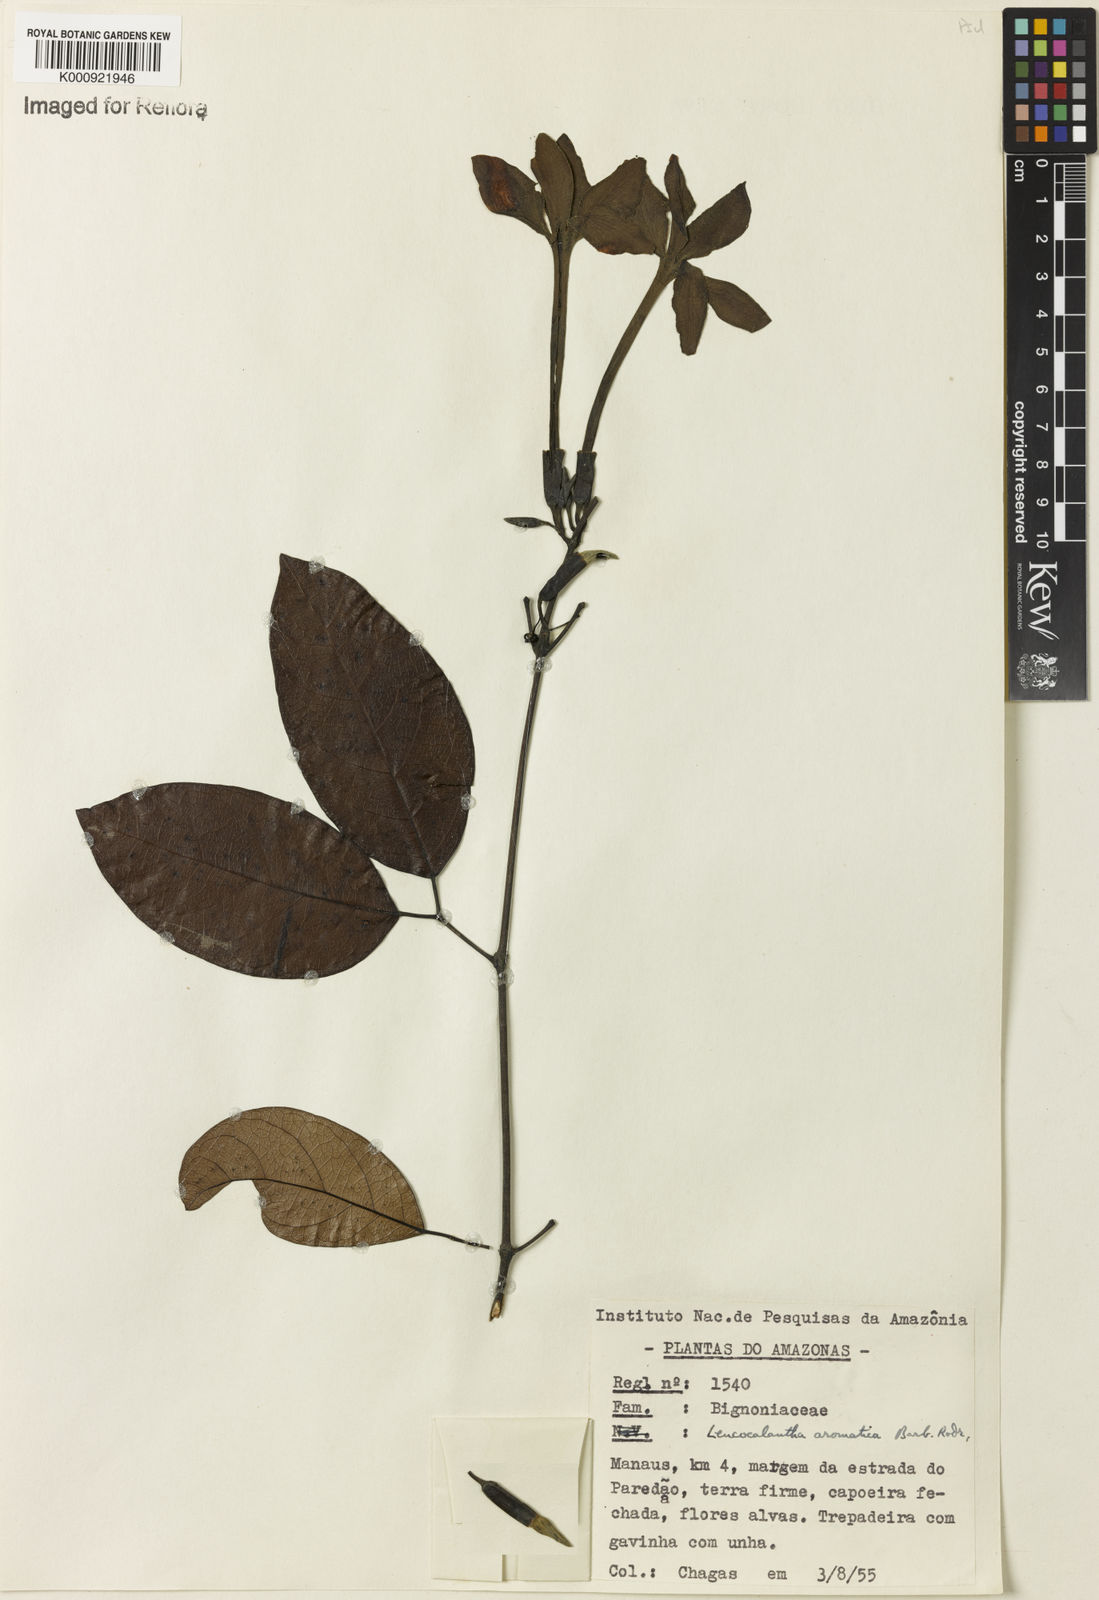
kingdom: Plantae
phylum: Tracheophyta
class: Magnoliopsida
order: Lamiales
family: Bignoniaceae
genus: Pachyptera
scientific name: Pachyptera aromatica
